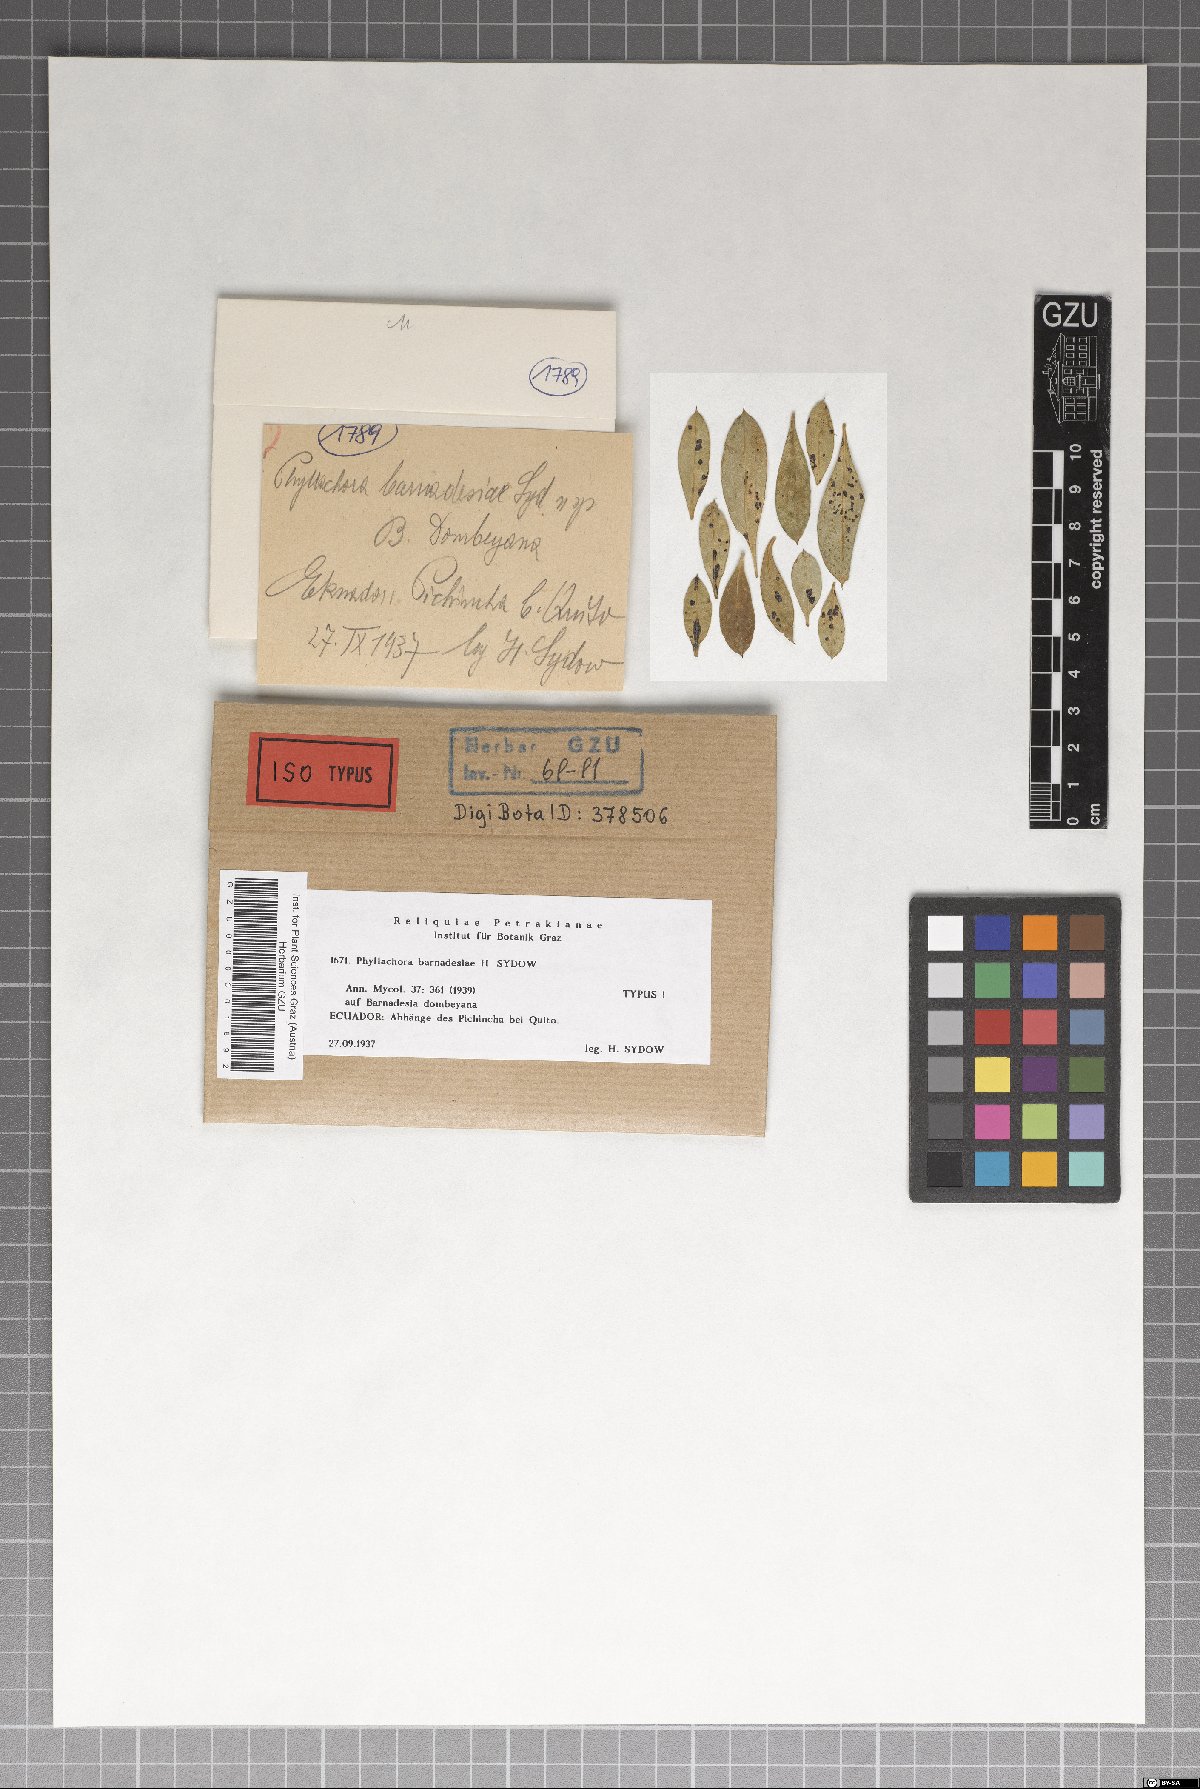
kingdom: Fungi
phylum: Ascomycota
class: Sordariomycetes
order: Phyllachorales
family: Phyllachoraceae
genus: Phyllachora
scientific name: Phyllachora barnadesiae
